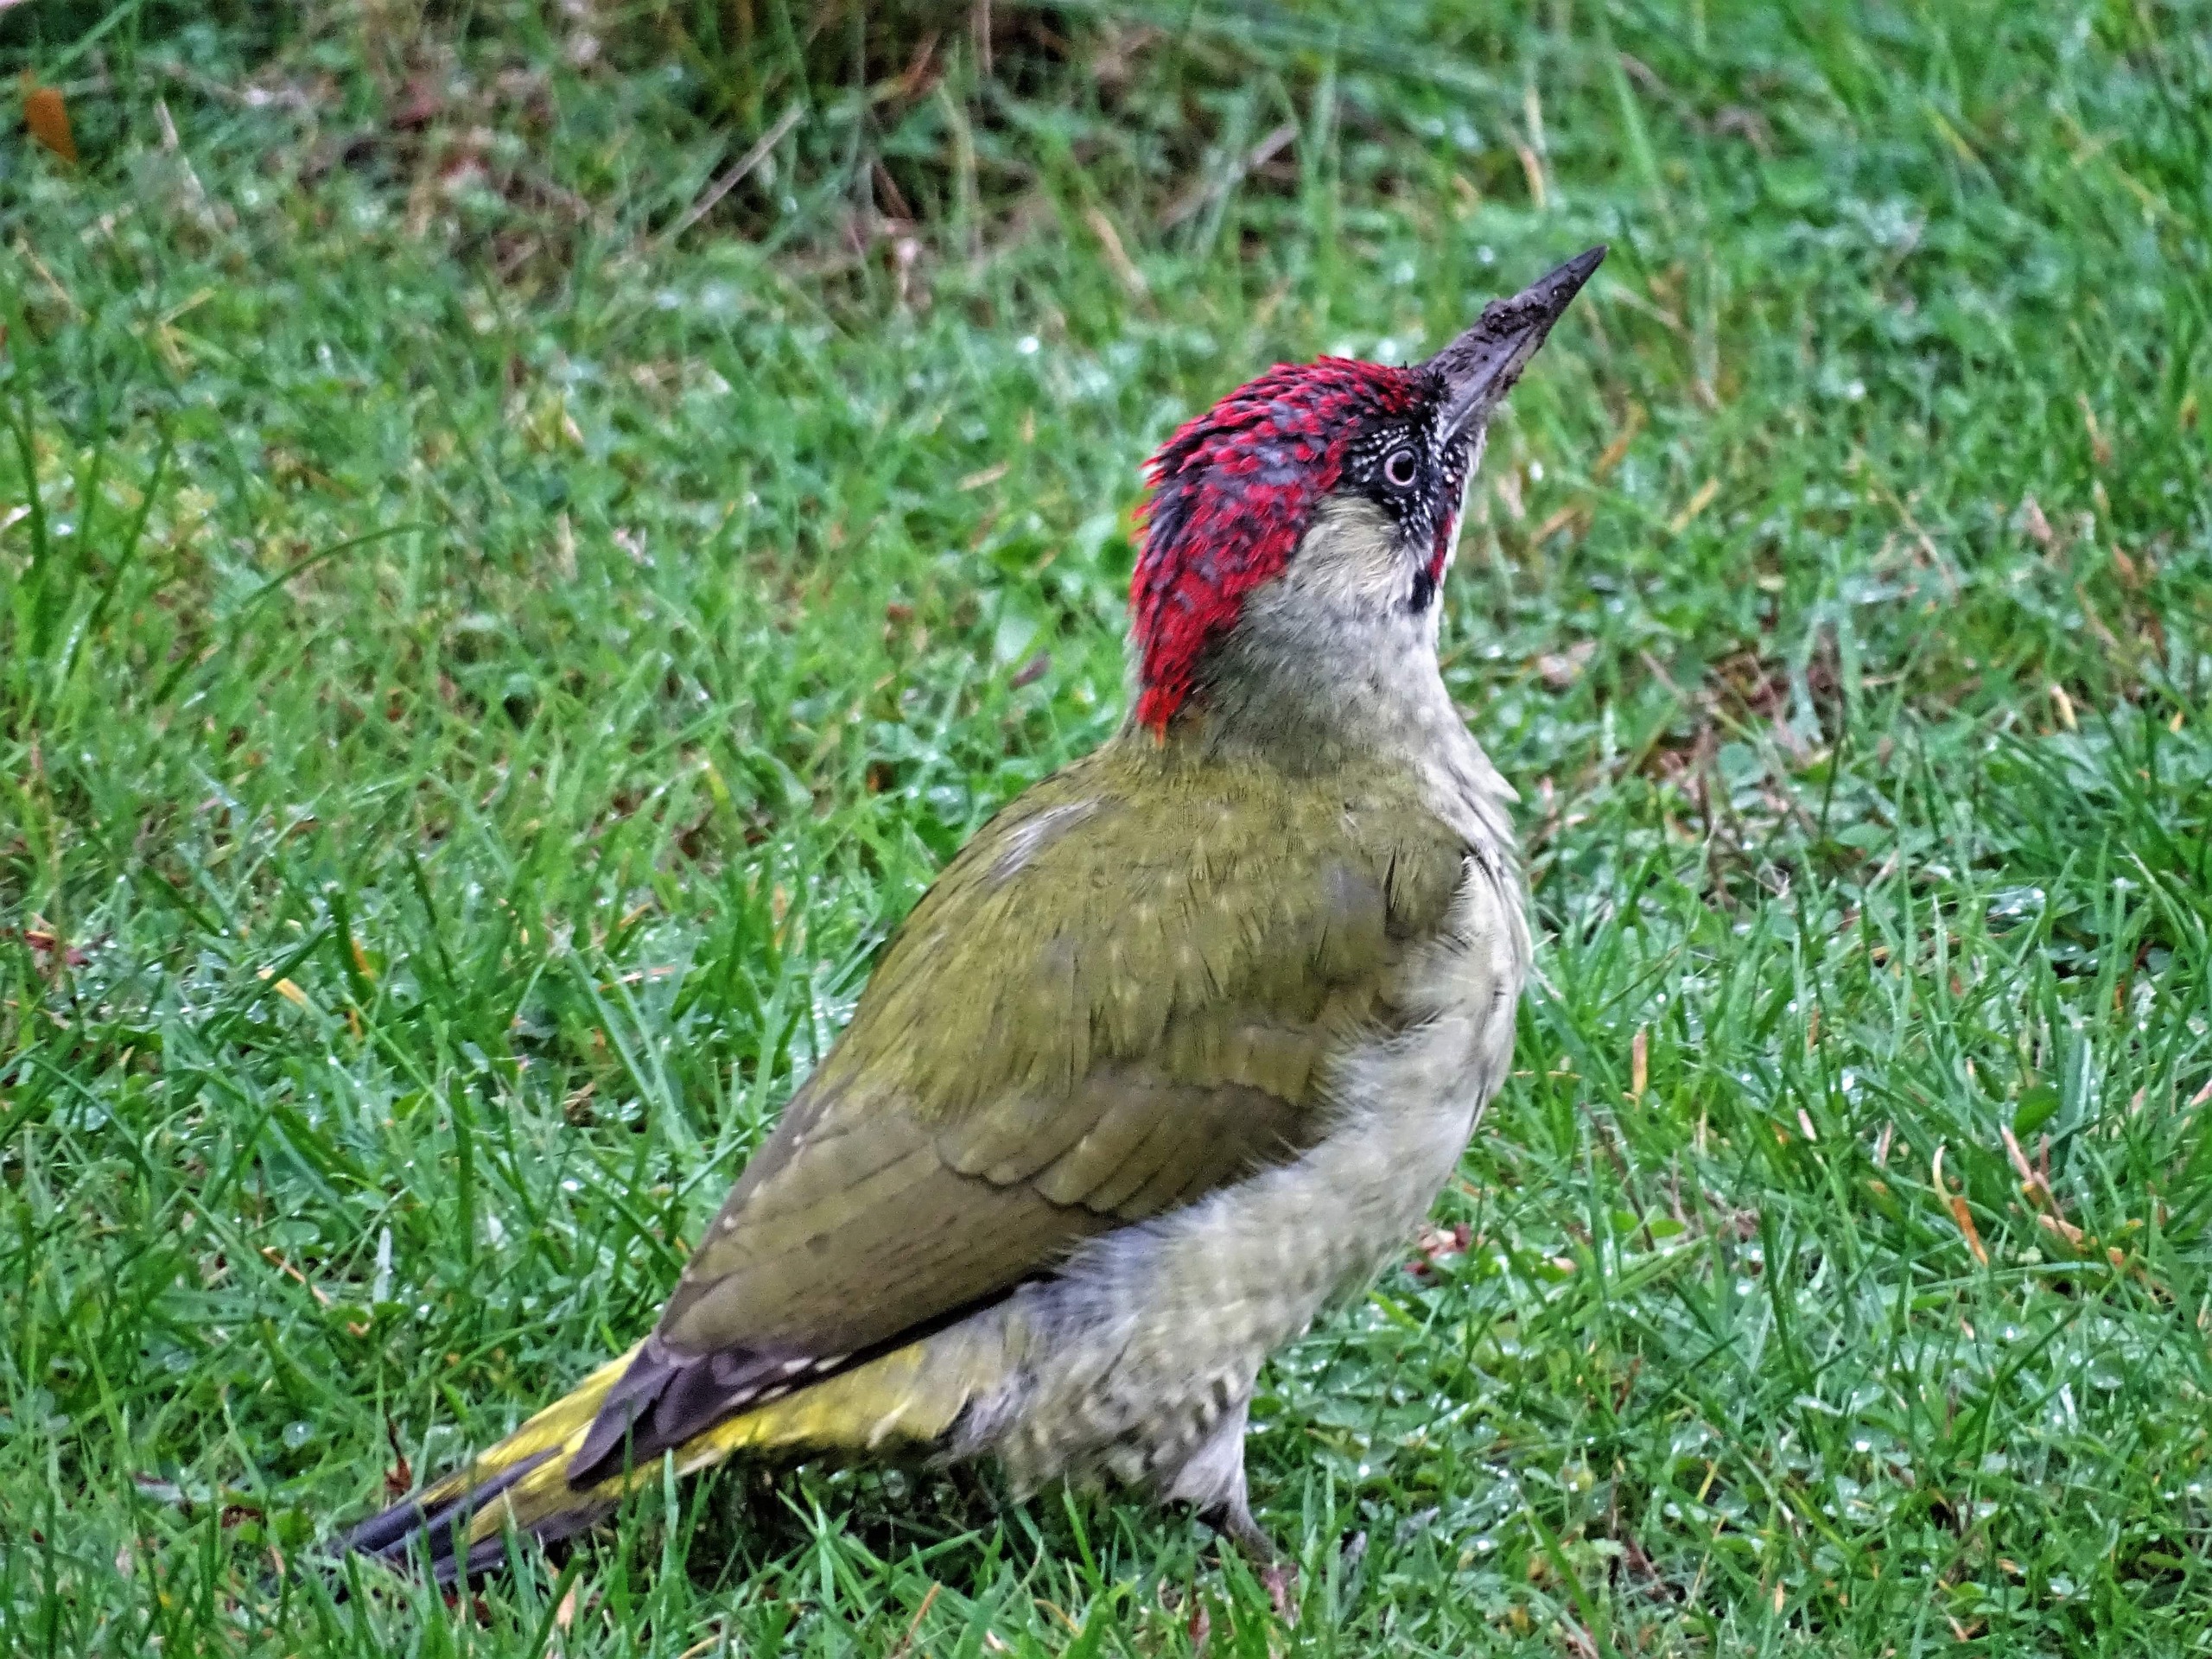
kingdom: Animalia
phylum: Chordata
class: Aves
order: Piciformes
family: Picidae
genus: Picus
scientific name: Picus viridis
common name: Grønspætte
